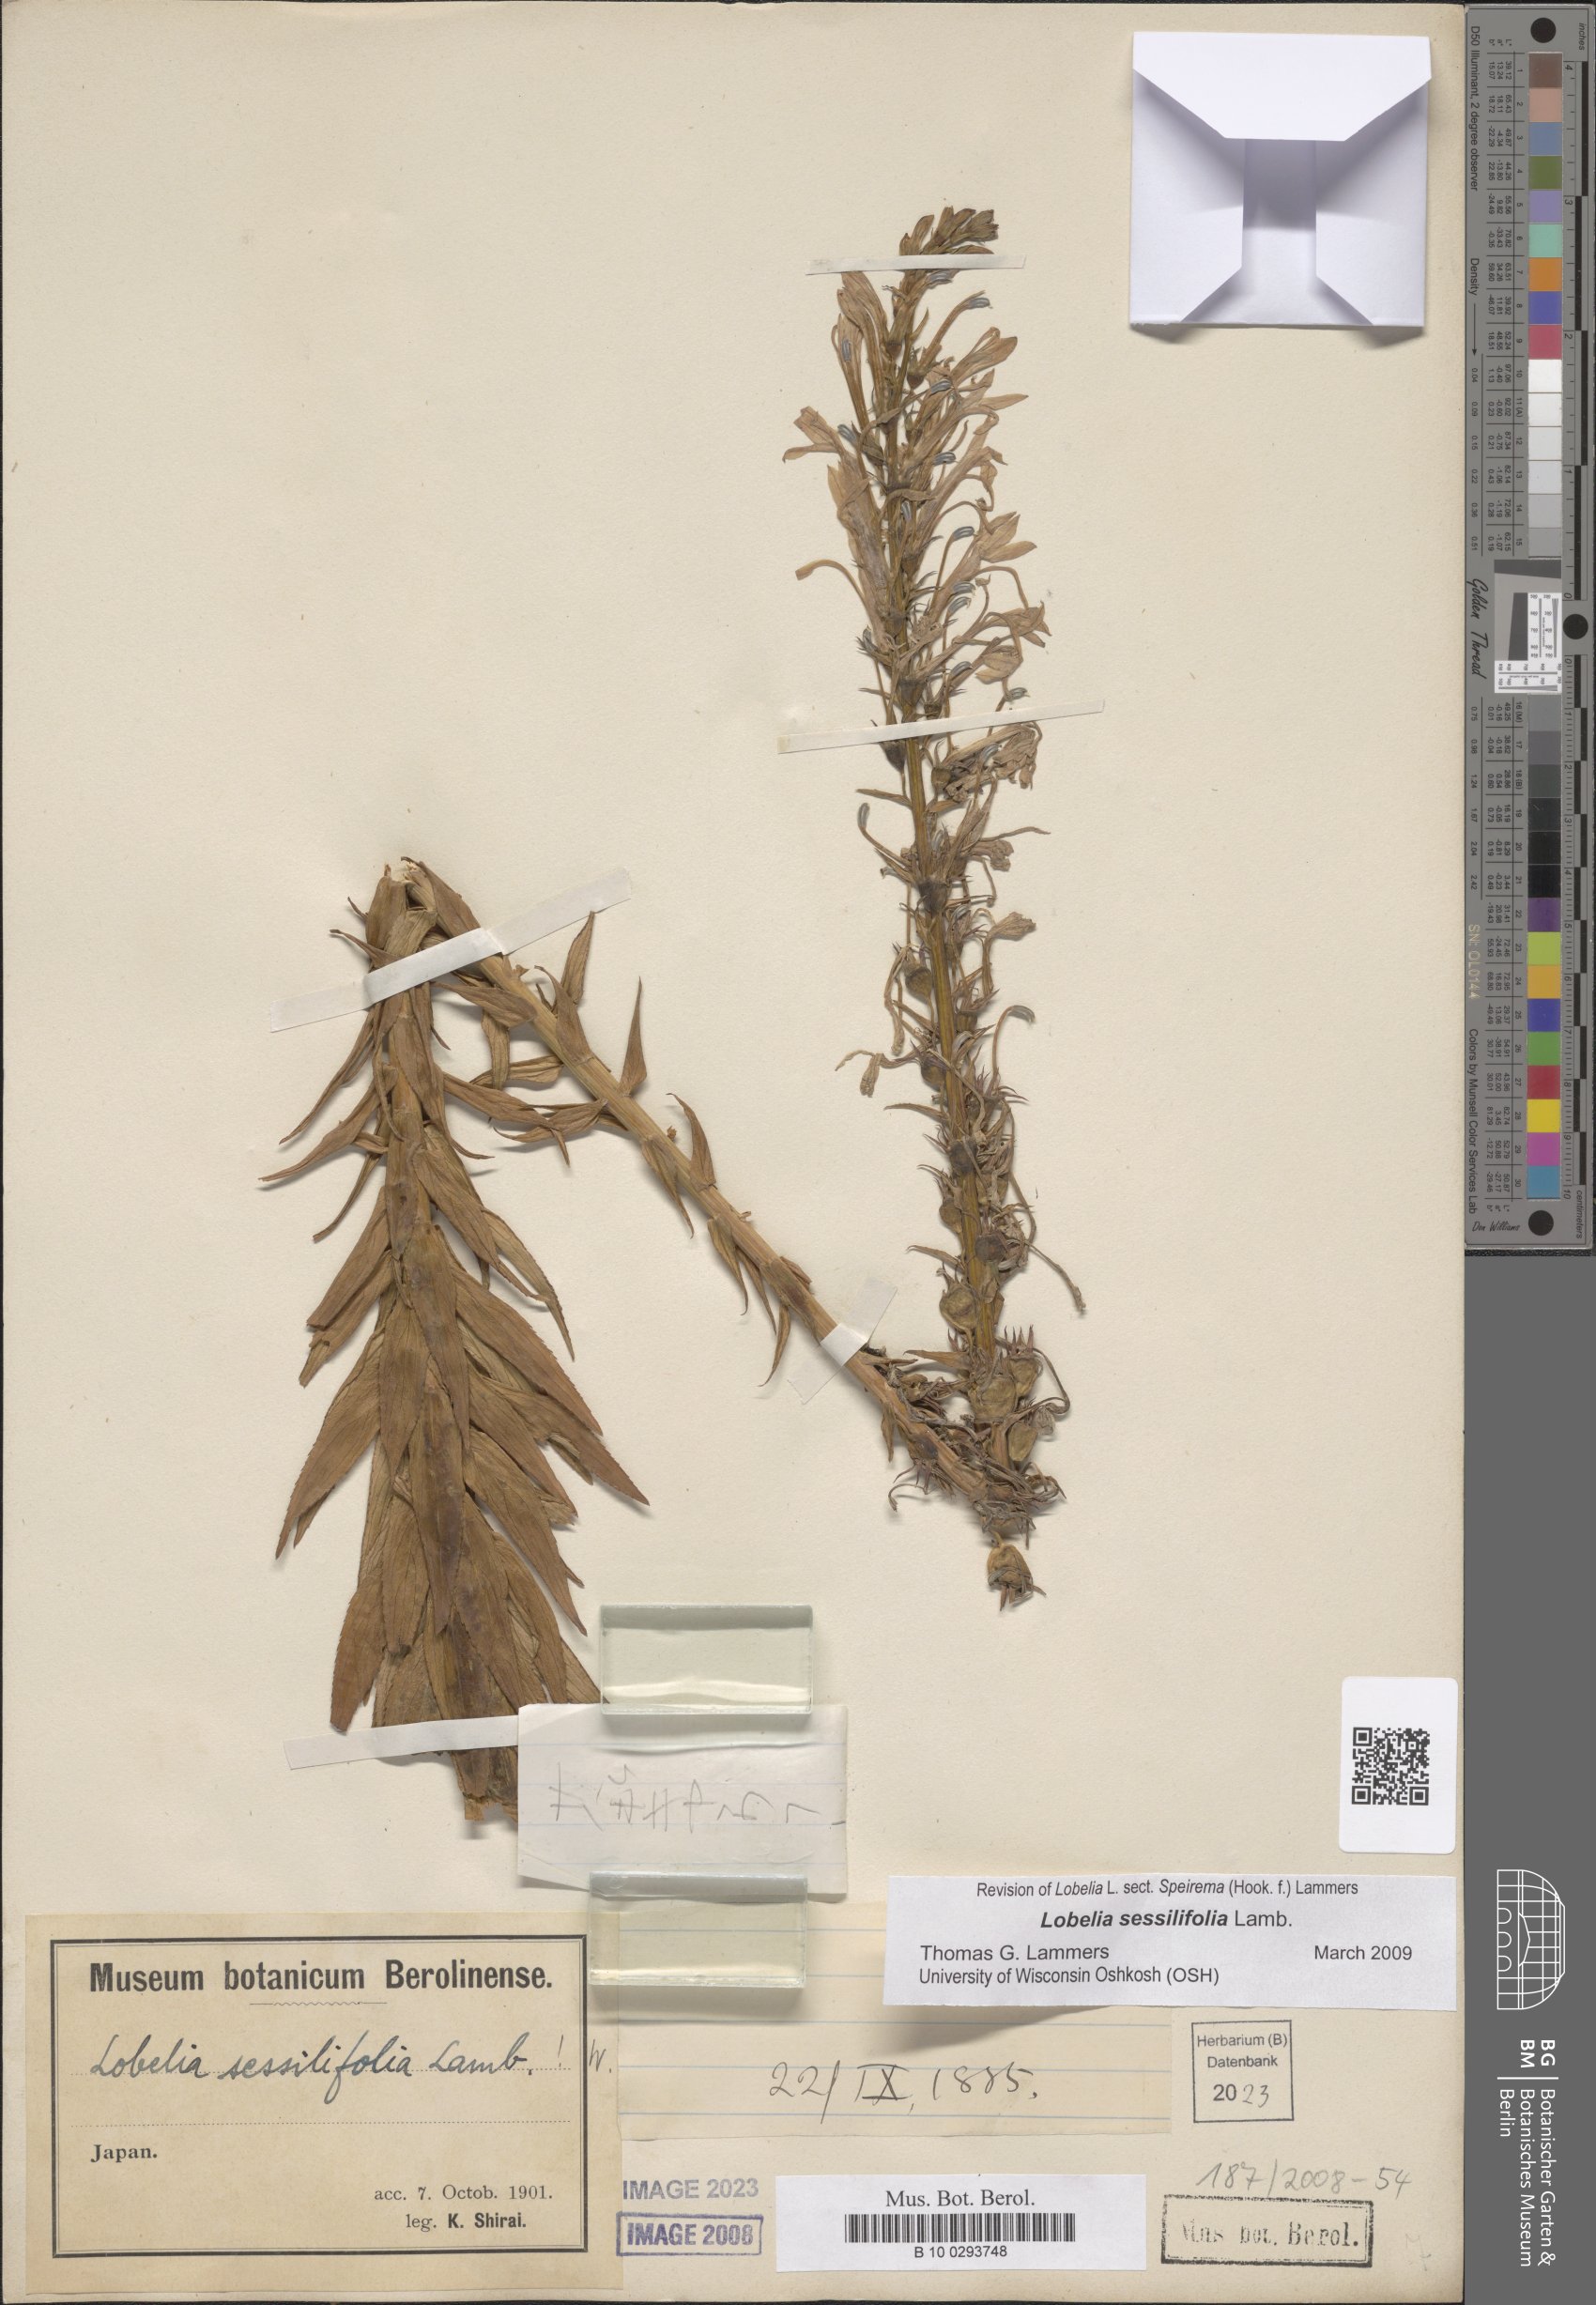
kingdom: Plantae
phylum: Tracheophyta
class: Magnoliopsida
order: Asterales
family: Campanulaceae
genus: Lobelia
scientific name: Lobelia sessilifolia
